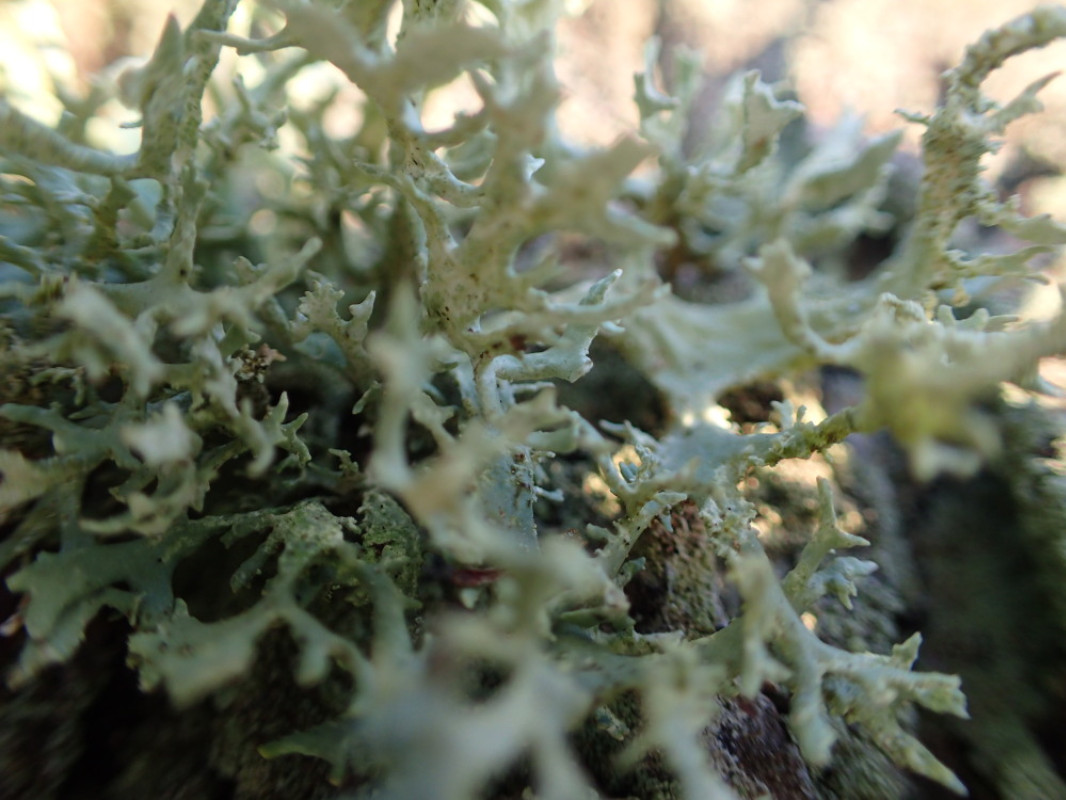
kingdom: Fungi
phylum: Ascomycota
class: Lecanoromycetes
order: Lecanorales
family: Parmeliaceae
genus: Evernia
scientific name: Evernia prunastri
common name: almindelig slåenlav
